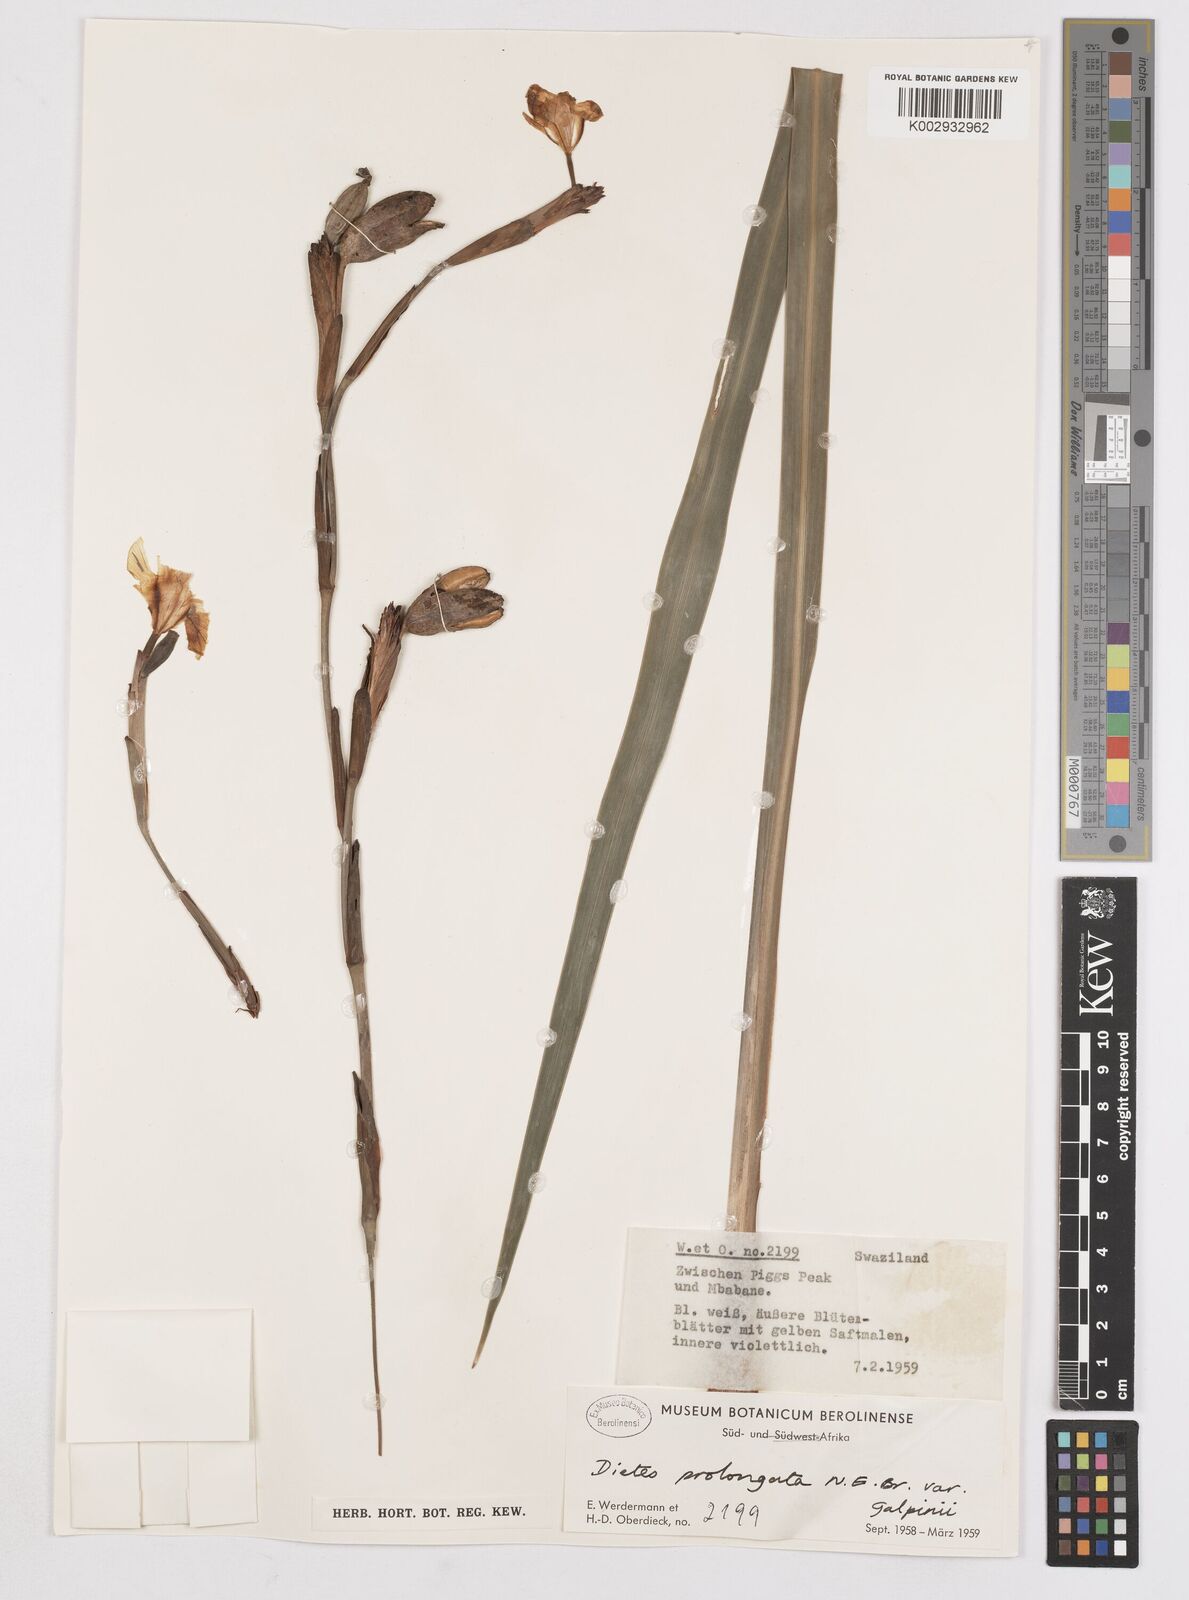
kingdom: Plantae
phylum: Tracheophyta
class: Liliopsida
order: Asparagales
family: Iridaceae
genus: Dietes
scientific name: Dietes iridioides
